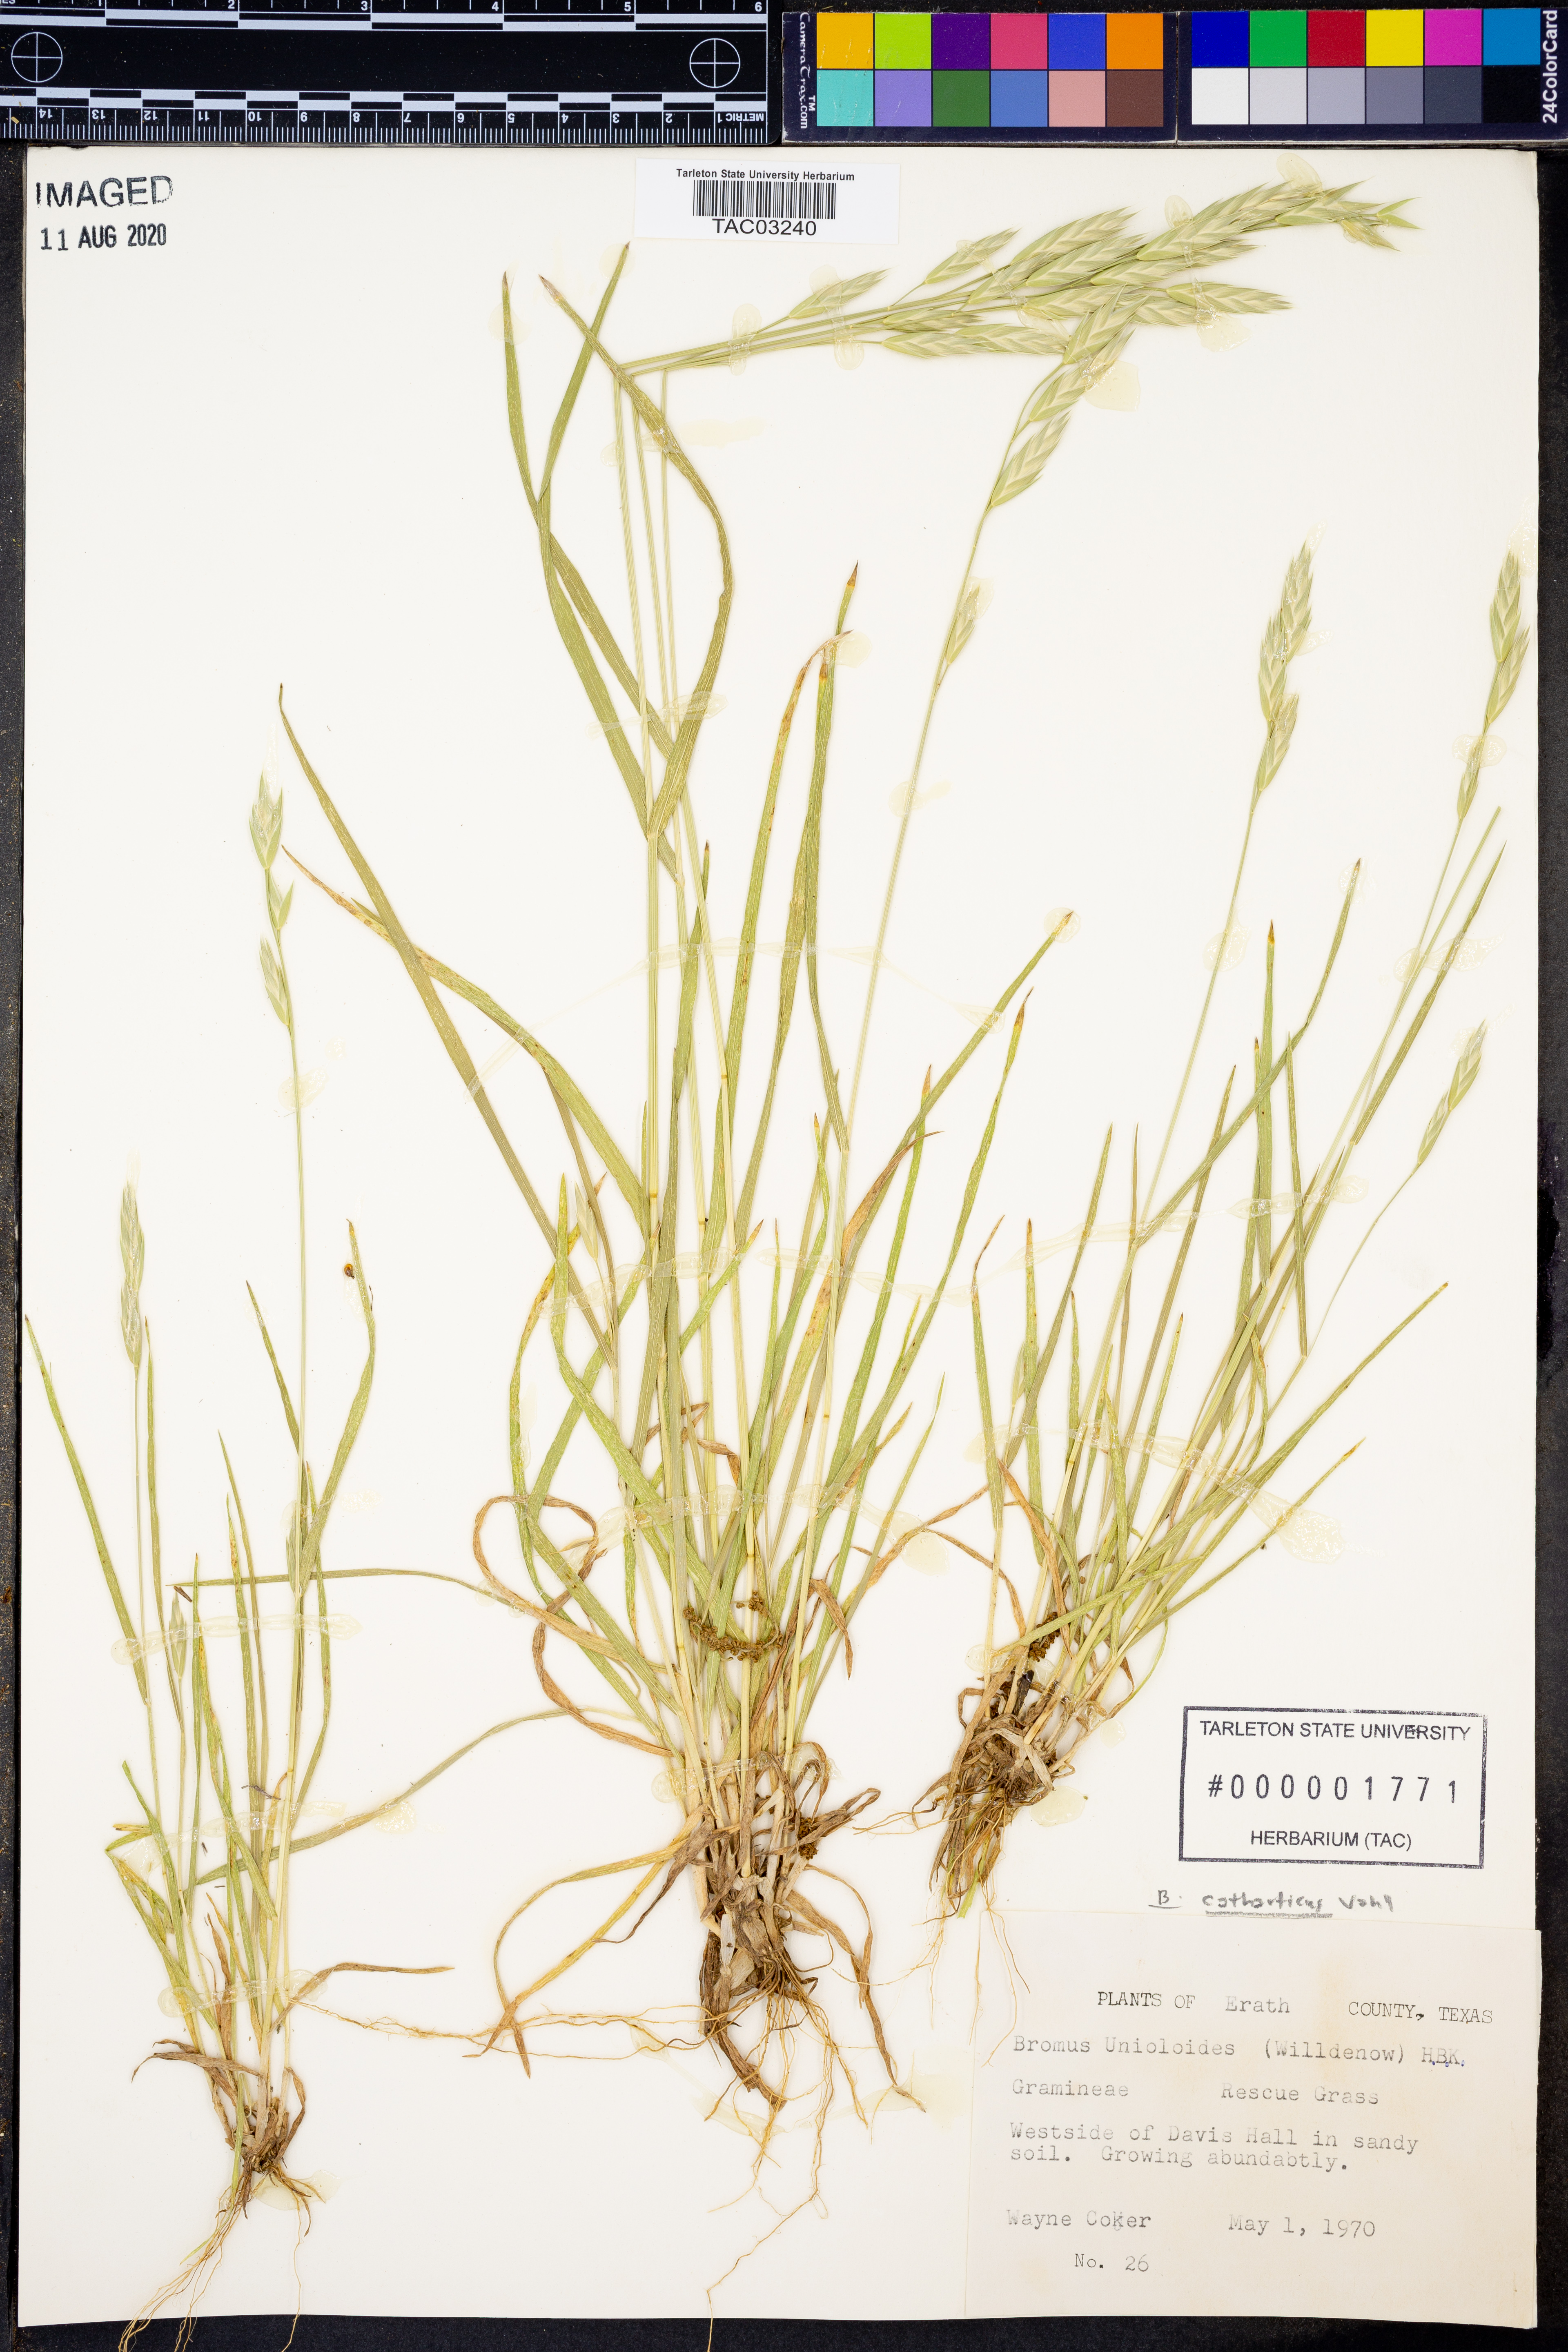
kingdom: Plantae
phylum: Tracheophyta
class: Liliopsida
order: Poales
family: Poaceae
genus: Bromus
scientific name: Bromus catharticus
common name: Rescuegrass
